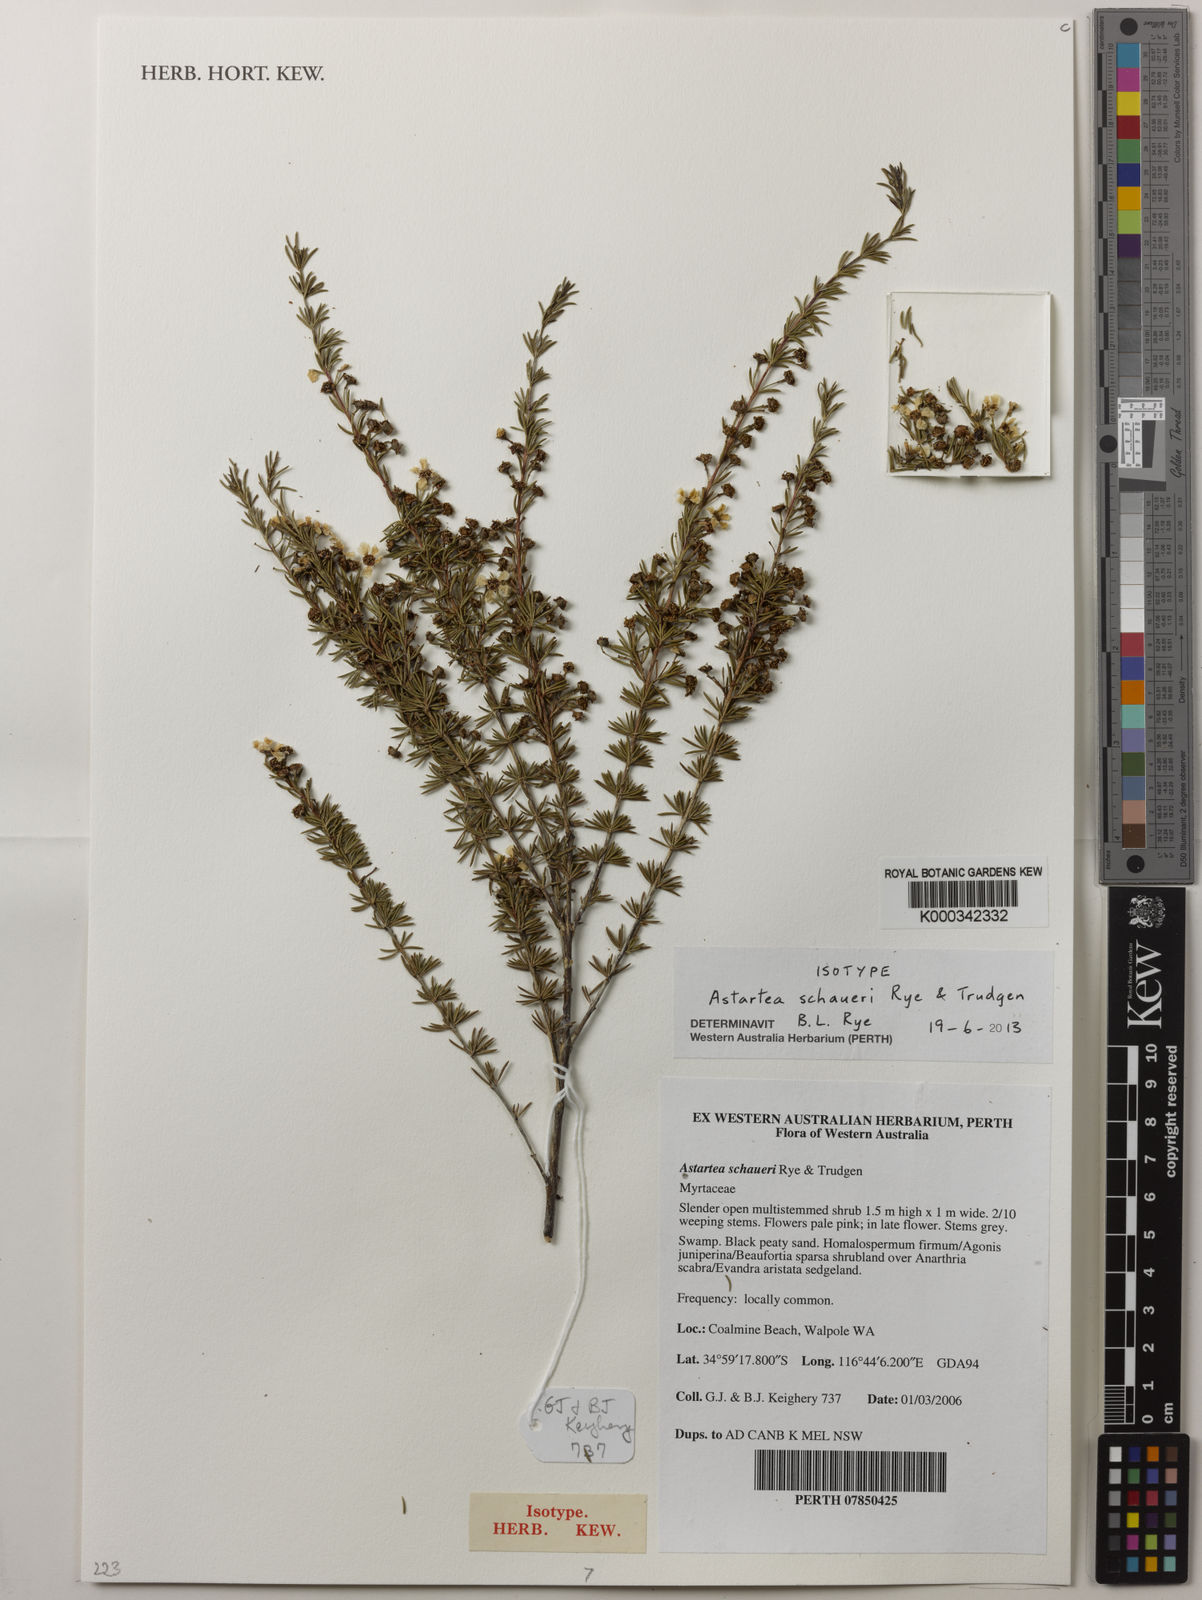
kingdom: Plantae
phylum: Tracheophyta
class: Magnoliopsida
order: Myrtales
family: Myrtaceae
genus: Astartea
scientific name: Astartea schaueri
